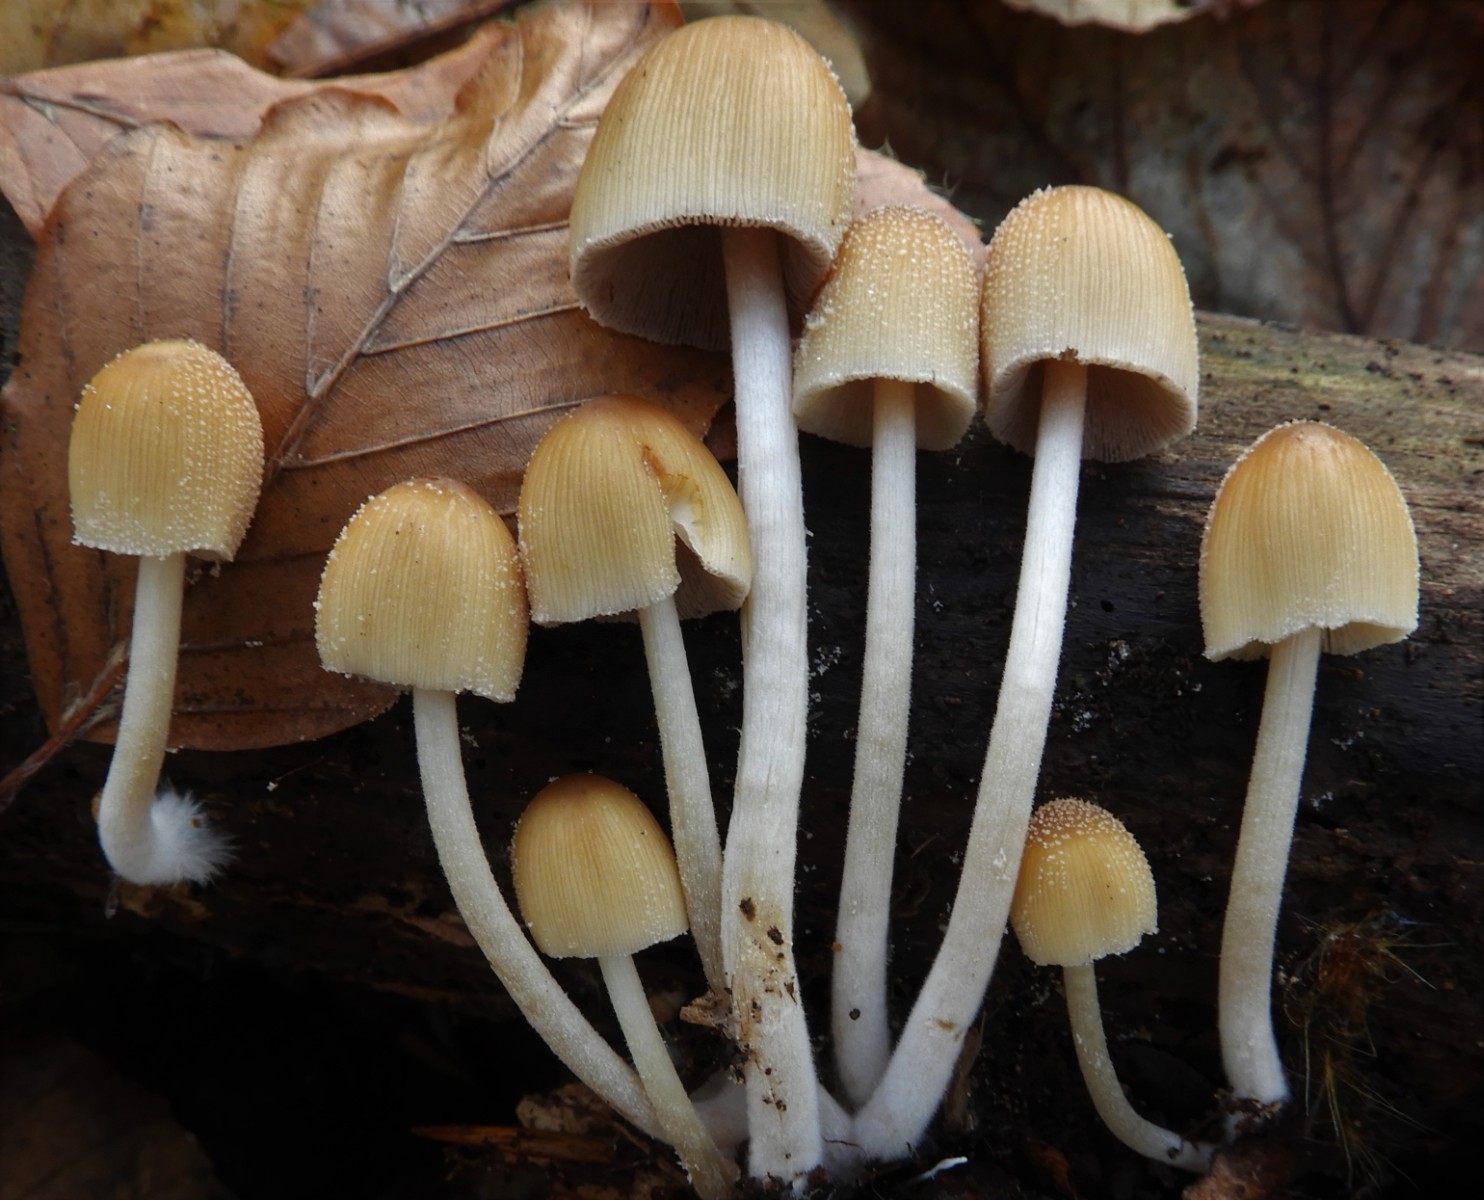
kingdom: Fungi
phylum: Basidiomycota
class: Agaricomycetes
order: Agaricales
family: Psathyrellaceae
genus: Coprinellus
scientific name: Coprinellus micaceus
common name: glimmer-blækhat
